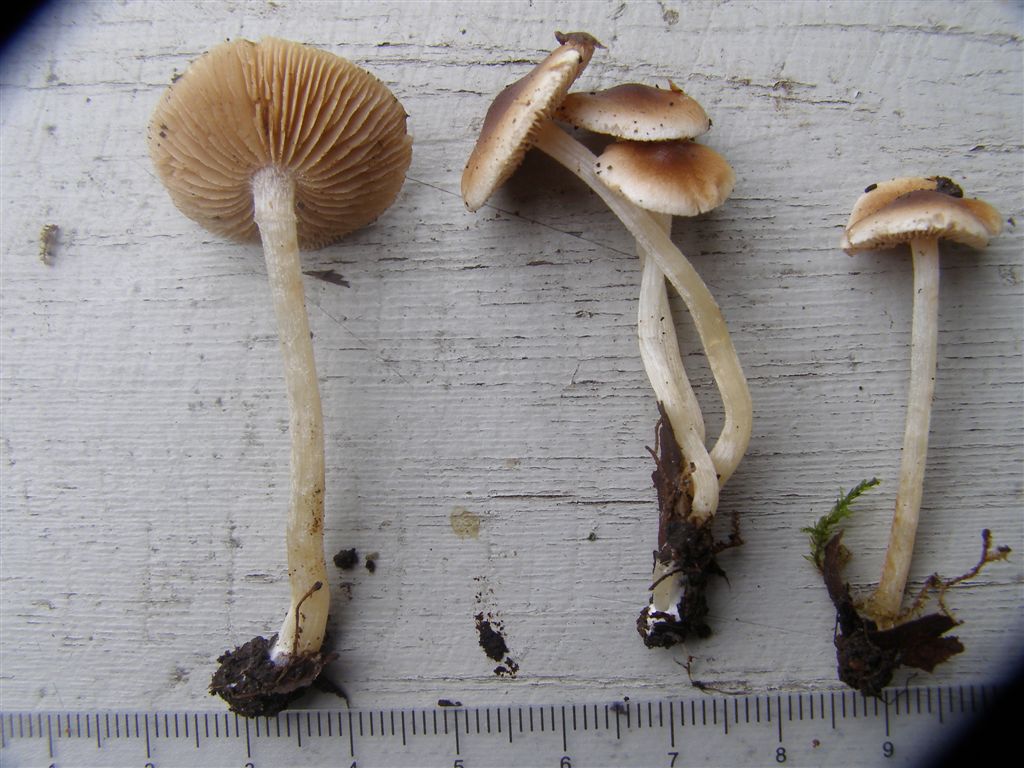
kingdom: Fungi
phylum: Basidiomycota
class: Agaricomycetes
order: Agaricales
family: Hymenogastraceae
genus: Hebeloma
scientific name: Hebeloma pusillum
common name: mose-tåreblad
